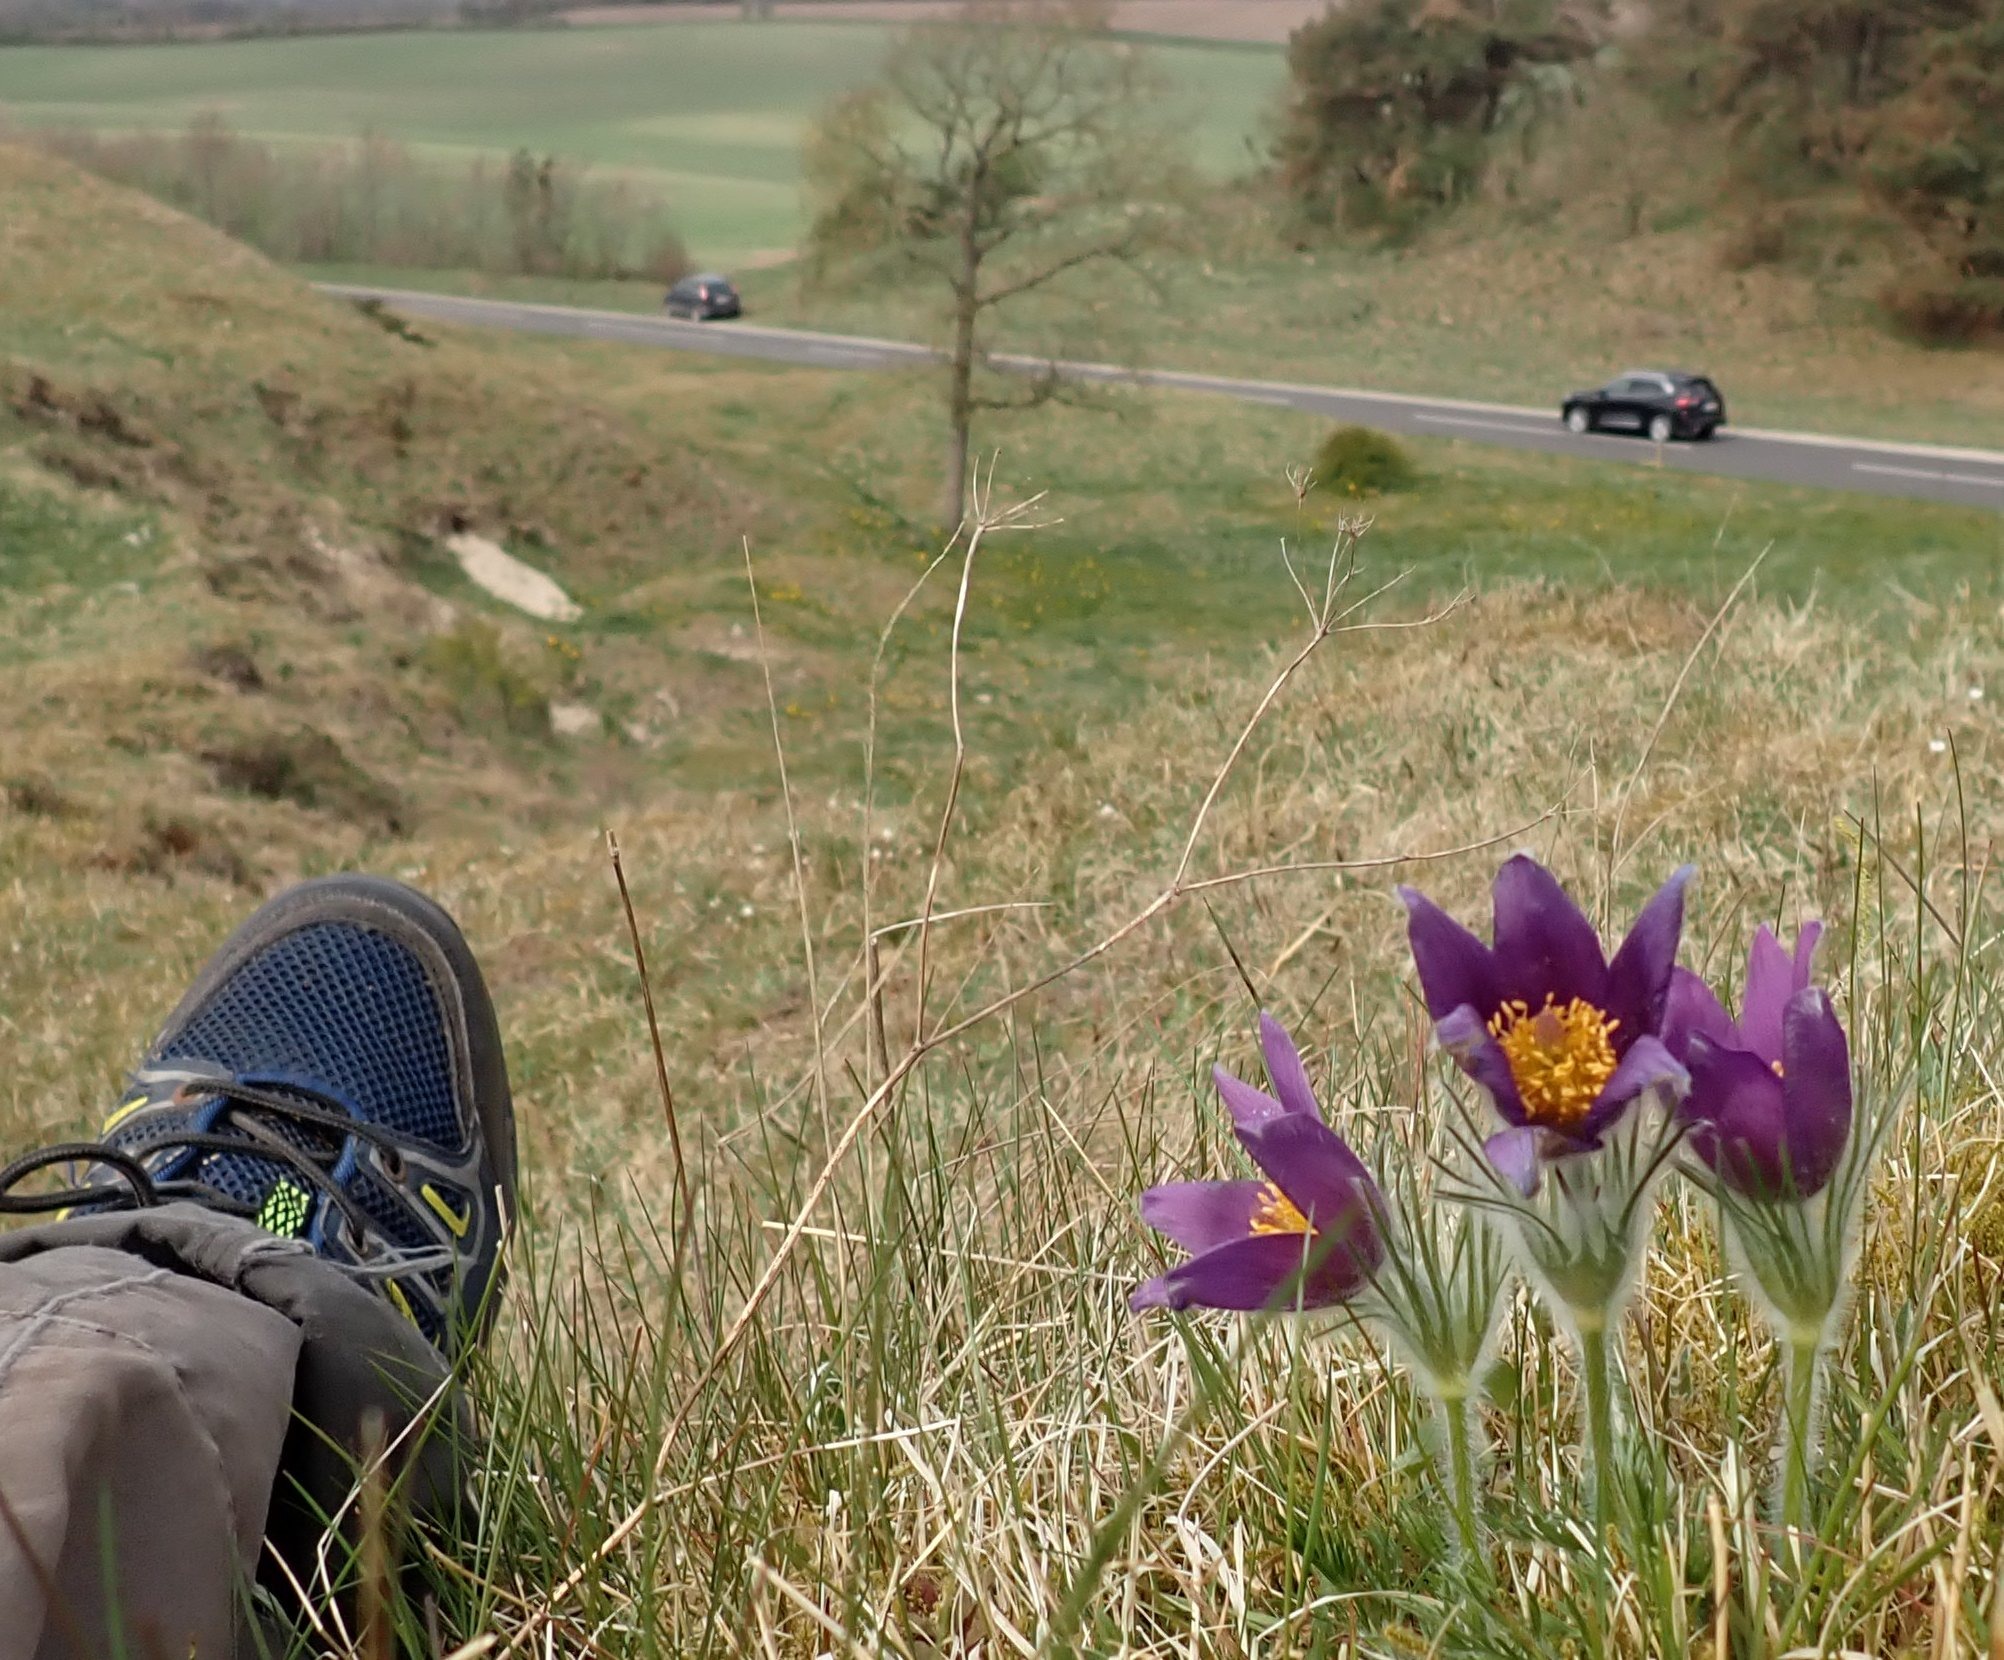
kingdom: Plantae
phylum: Tracheophyta
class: Magnoliopsida
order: Ranunculales
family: Ranunculaceae
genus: Pulsatilla
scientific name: Pulsatilla vulgaris
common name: Opret kobjælde
